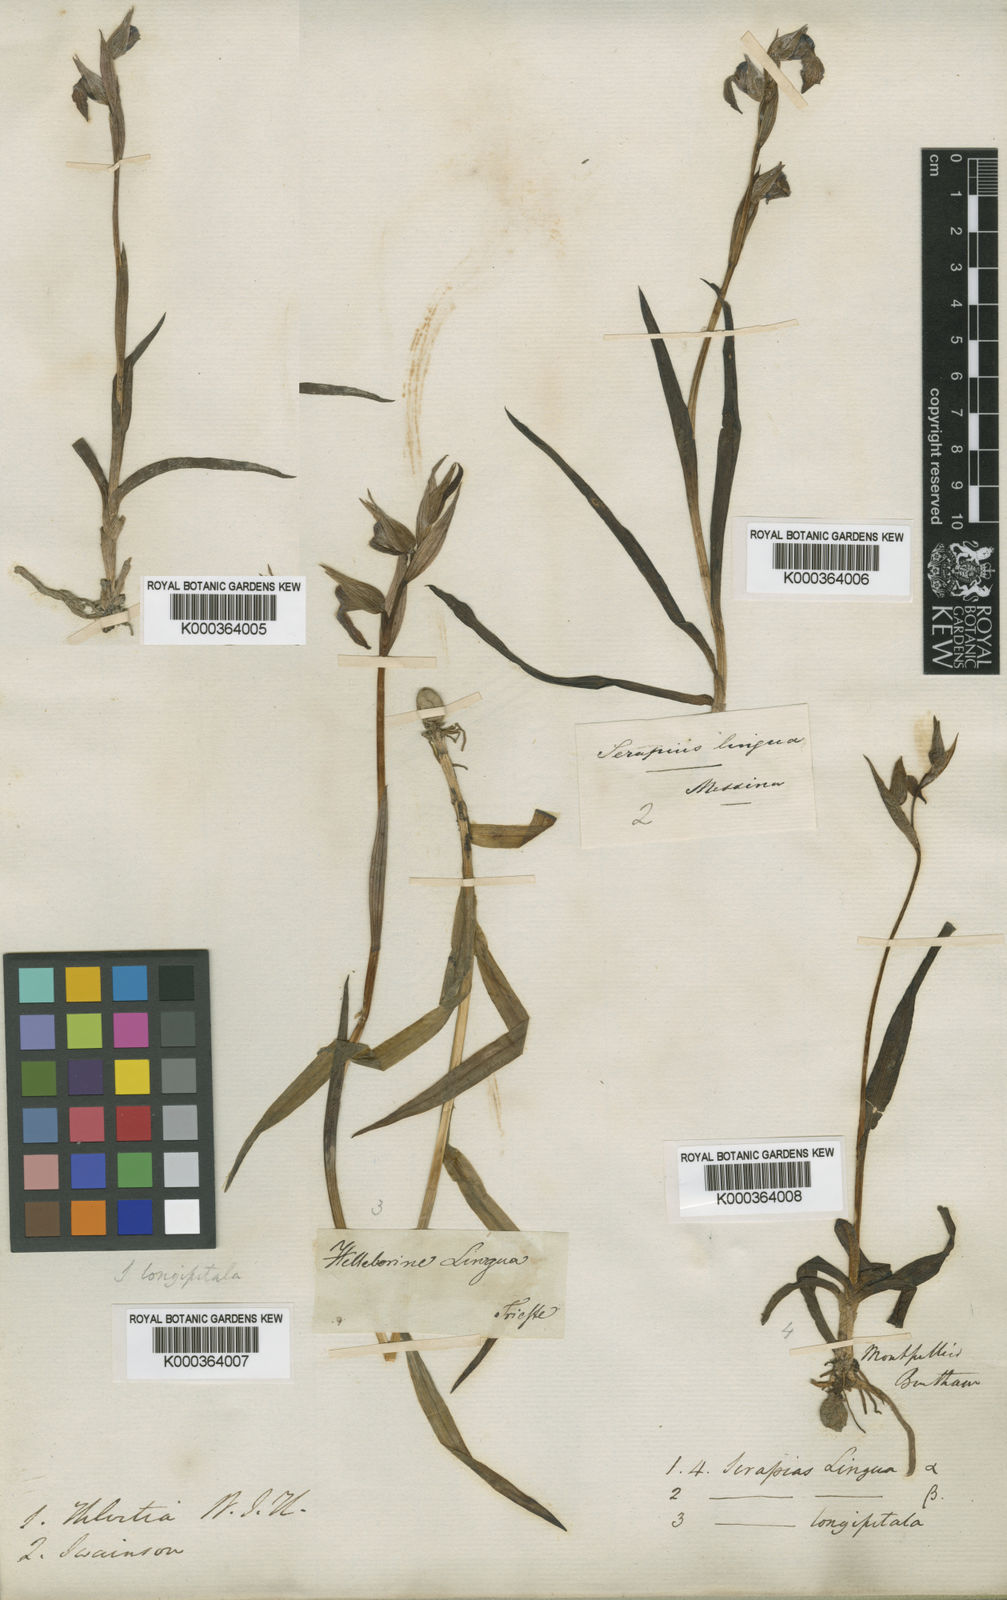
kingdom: Plantae
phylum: Tracheophyta
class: Liliopsida
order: Asparagales
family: Orchidaceae
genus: Serapias
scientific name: Serapias lingua
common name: Tongue-orchid
